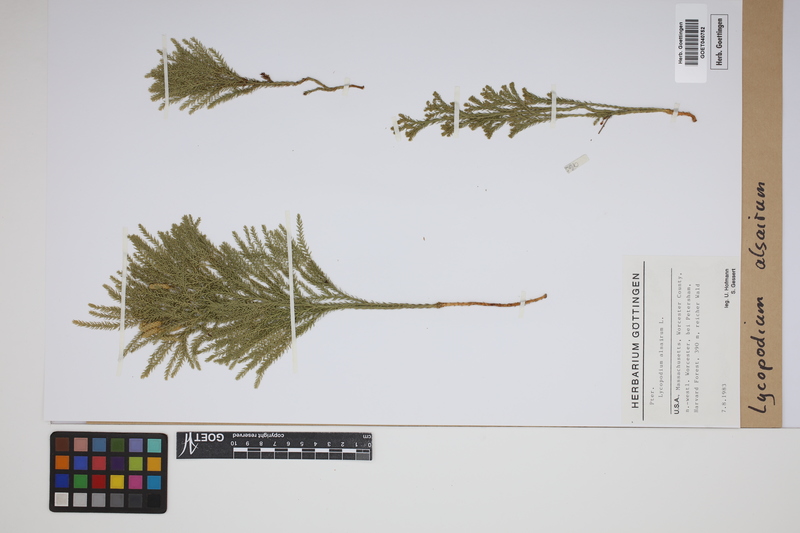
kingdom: Plantae
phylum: Tracheophyta
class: Lycopodiopsida
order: Lycopodiales
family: Lycopodiaceae
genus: Lycopodium
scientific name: Lycopodium
